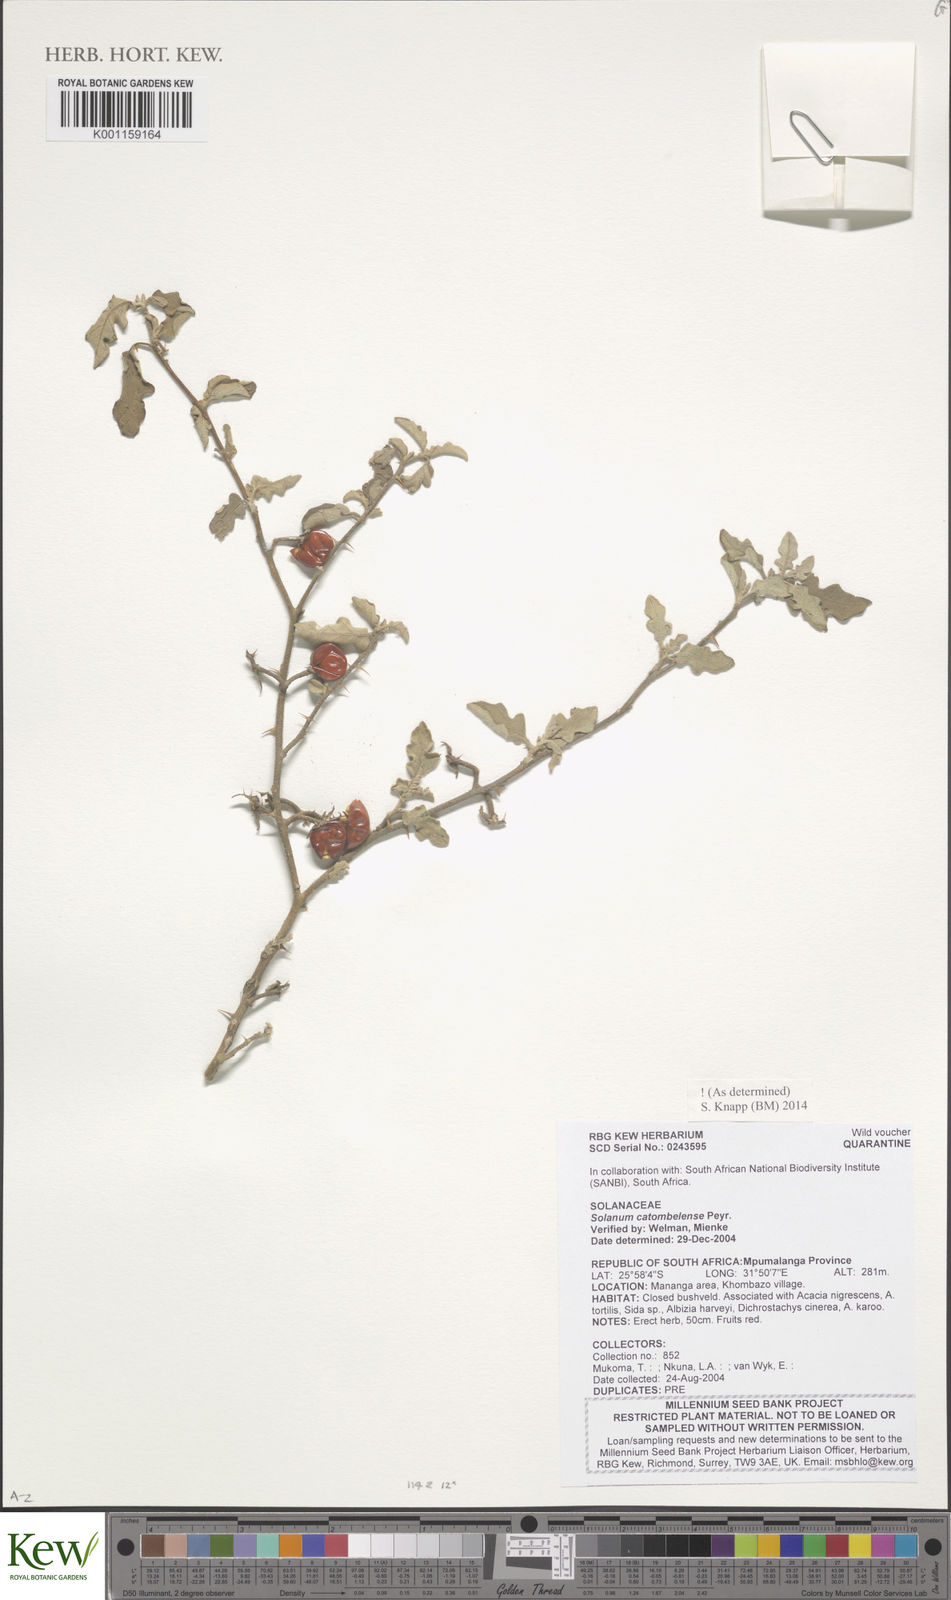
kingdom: Plantae
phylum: Tracheophyta
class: Magnoliopsida
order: Solanales
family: Solanaceae
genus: Solanum
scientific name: Solanum catombelense
